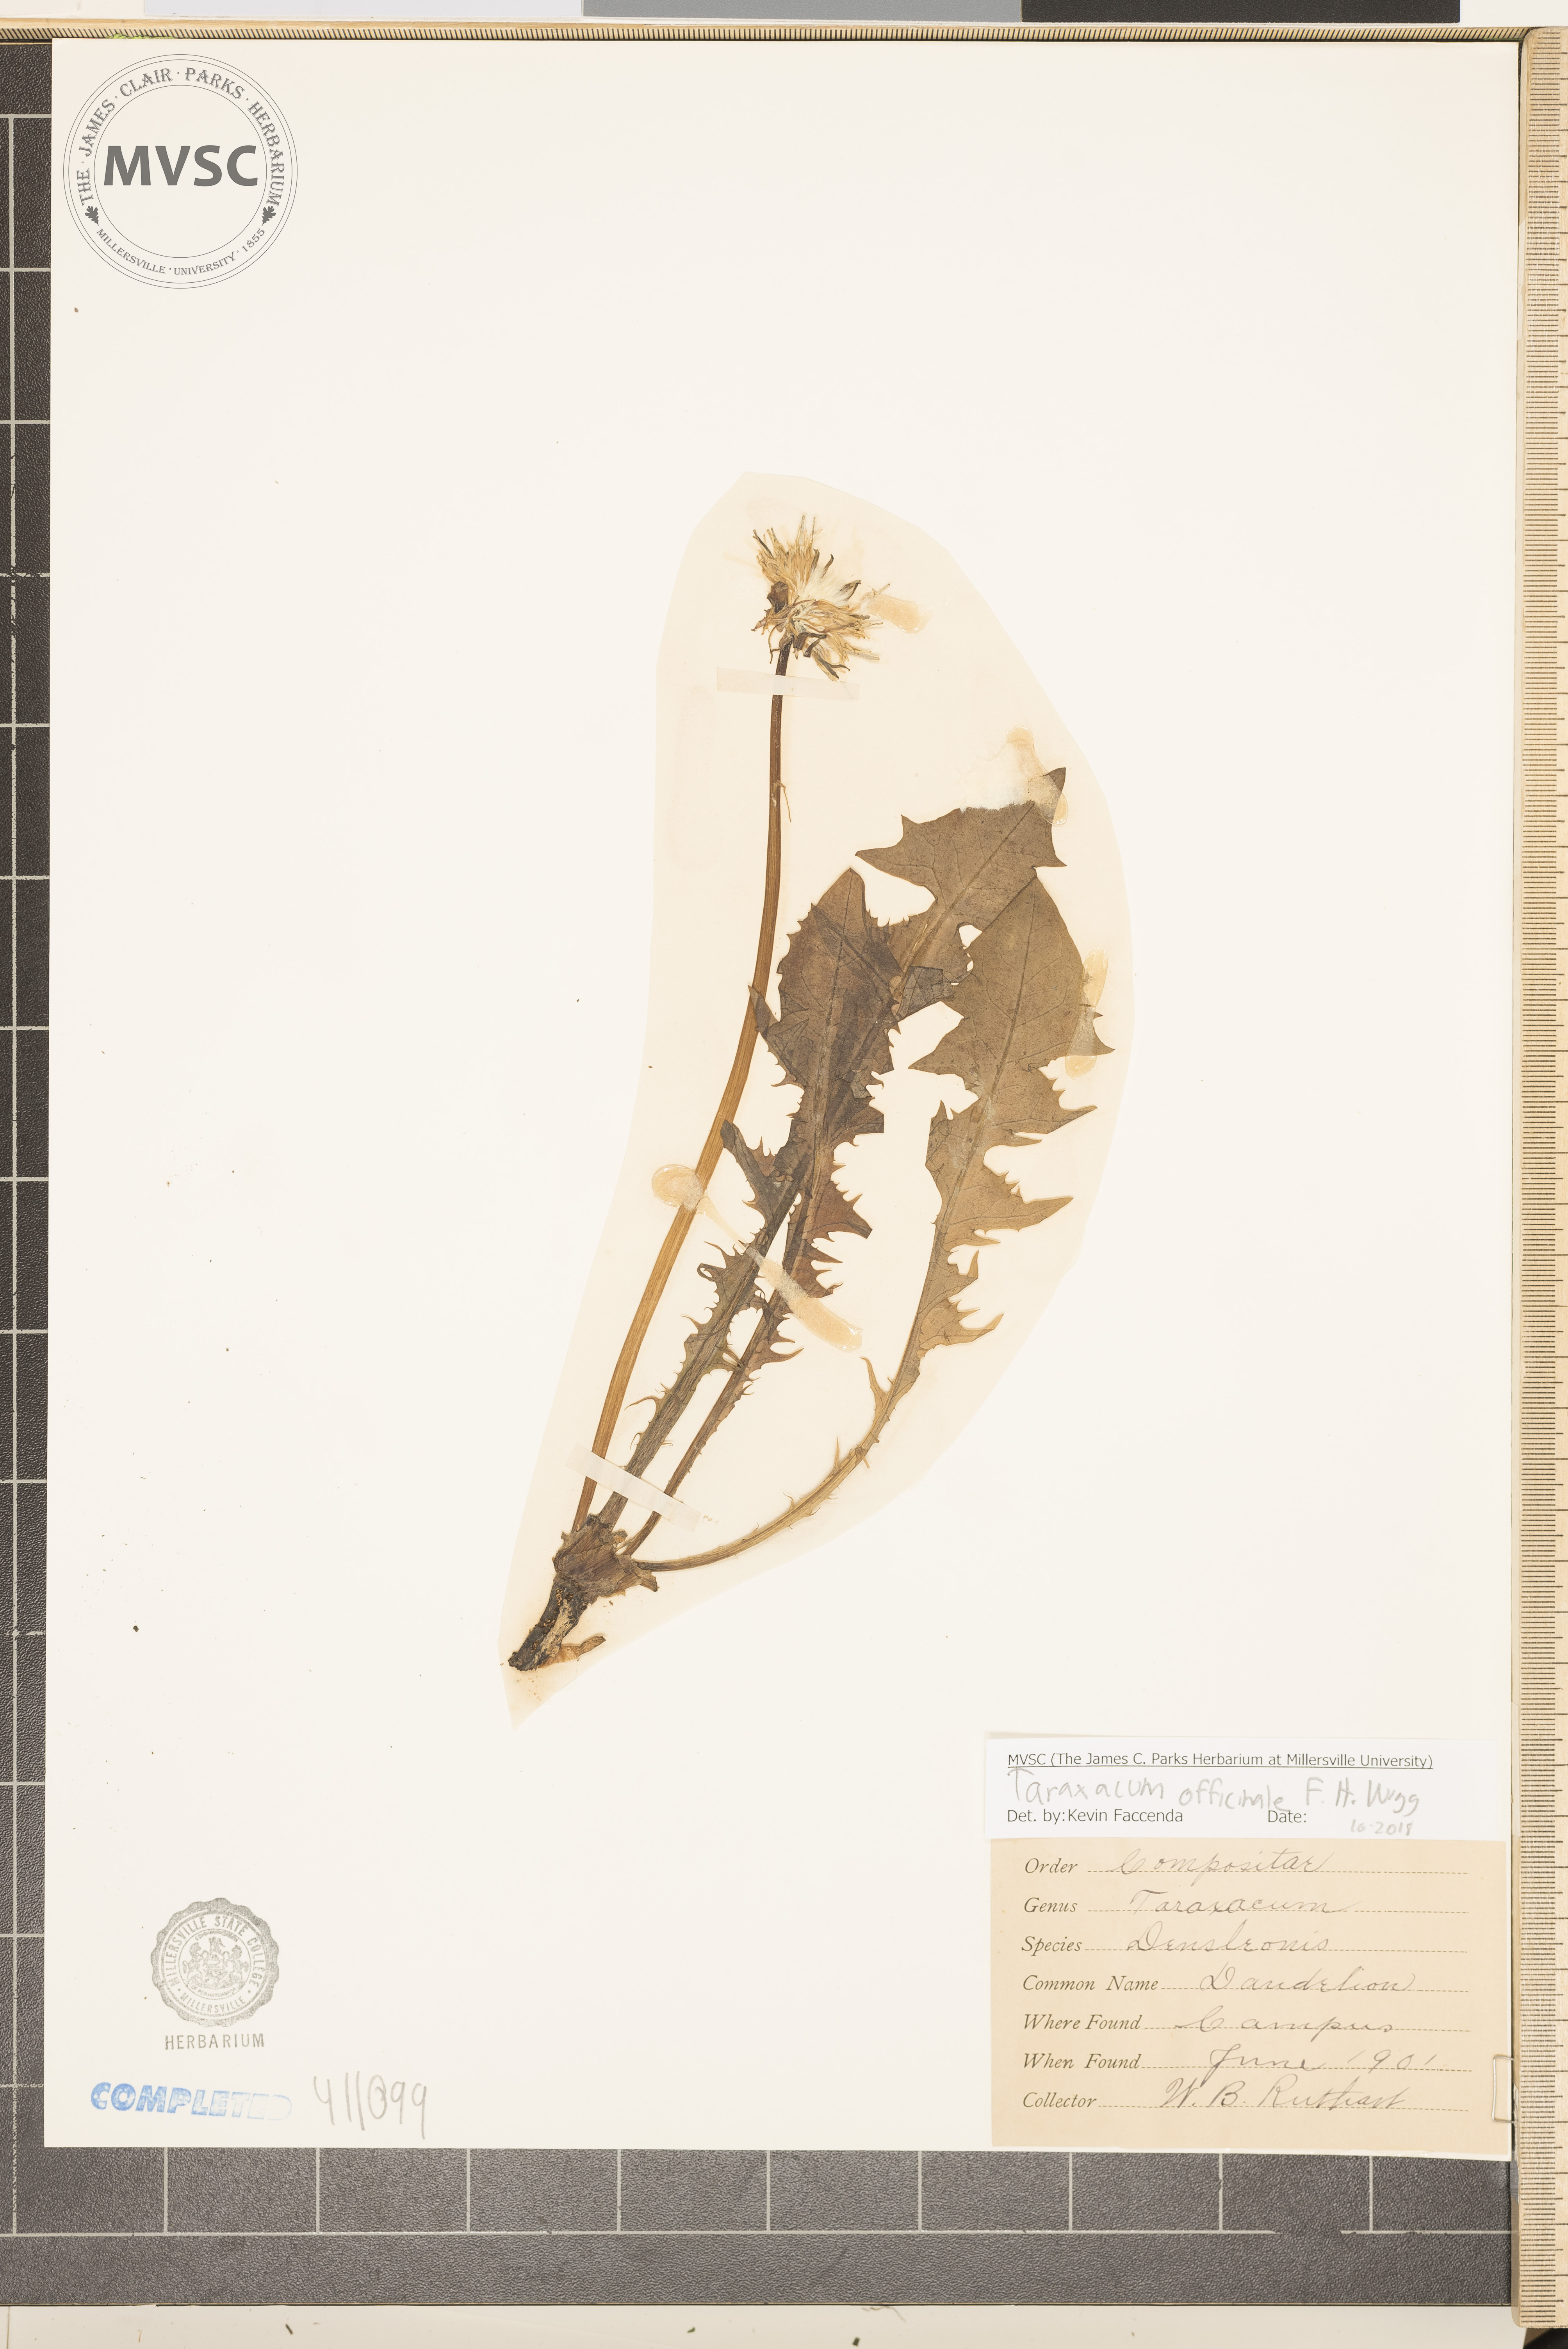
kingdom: Plantae
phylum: Tracheophyta
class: Magnoliopsida
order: Asterales
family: Asteraceae
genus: Taraxacum
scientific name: Taraxacum officinale
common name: Common dandelion
